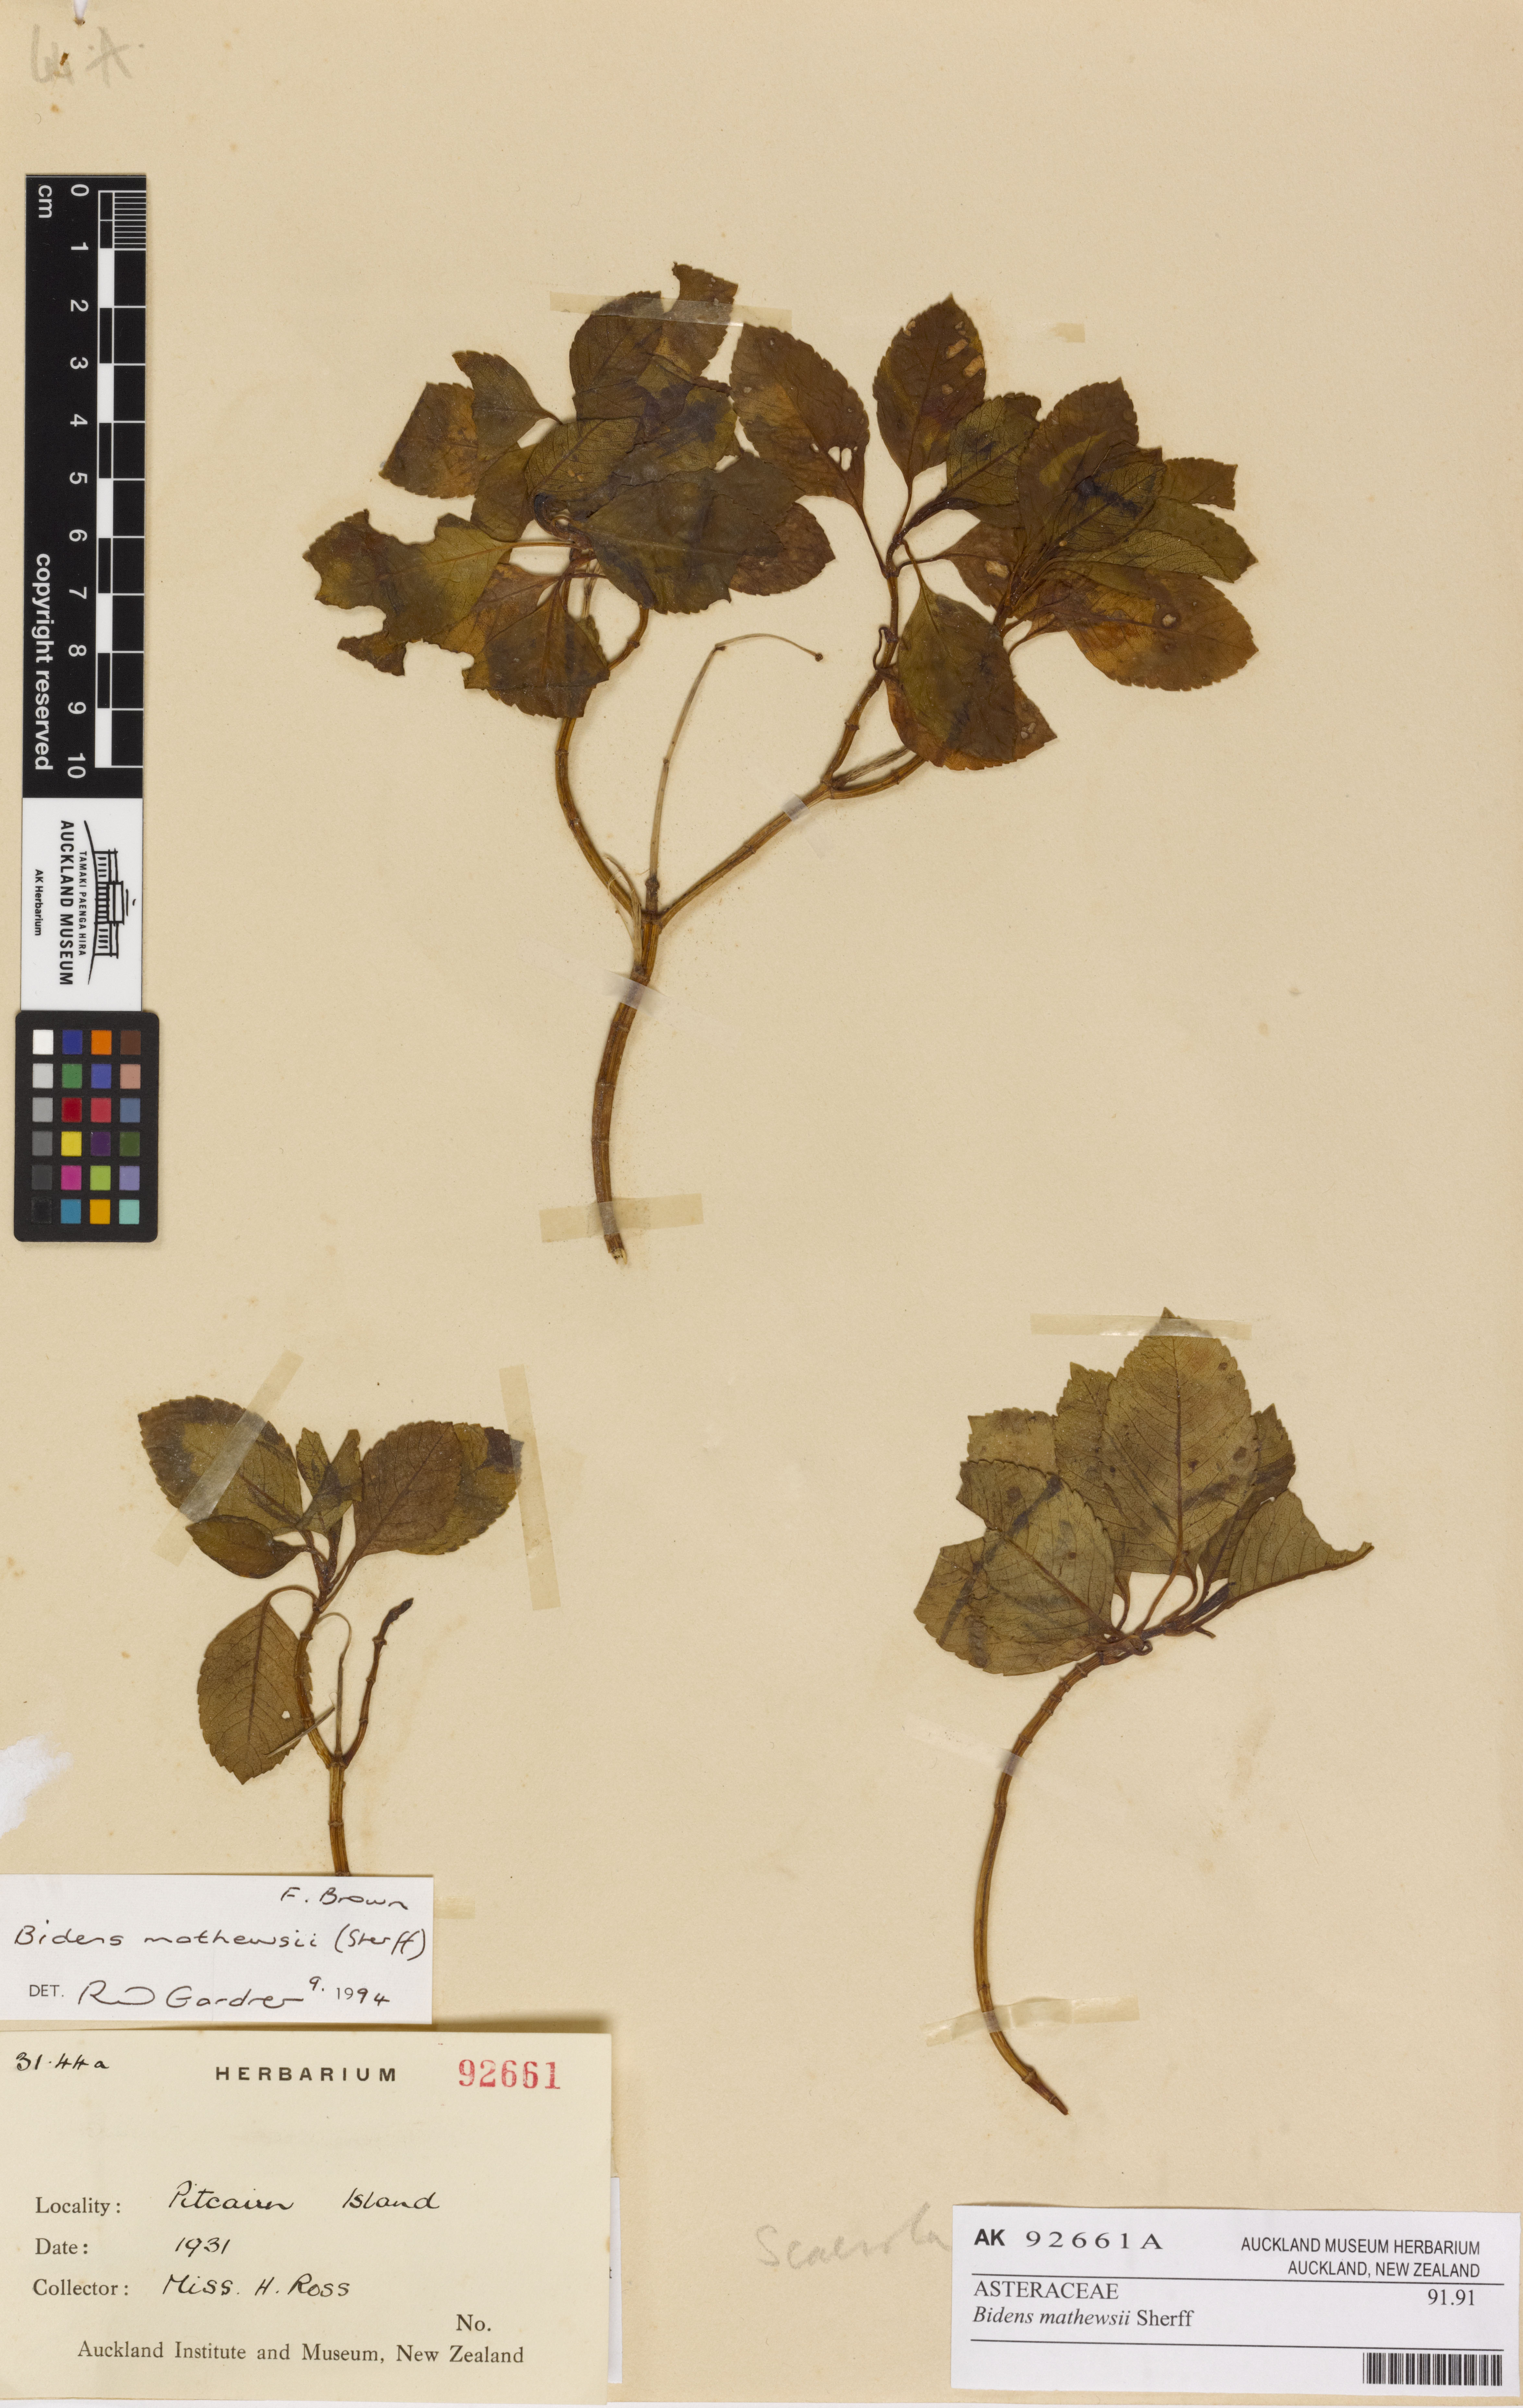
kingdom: Plantae
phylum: Tracheophyta
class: Magnoliopsida
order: Asterales
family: Asteraceae
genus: Bidens
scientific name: Bidens mathewsii
